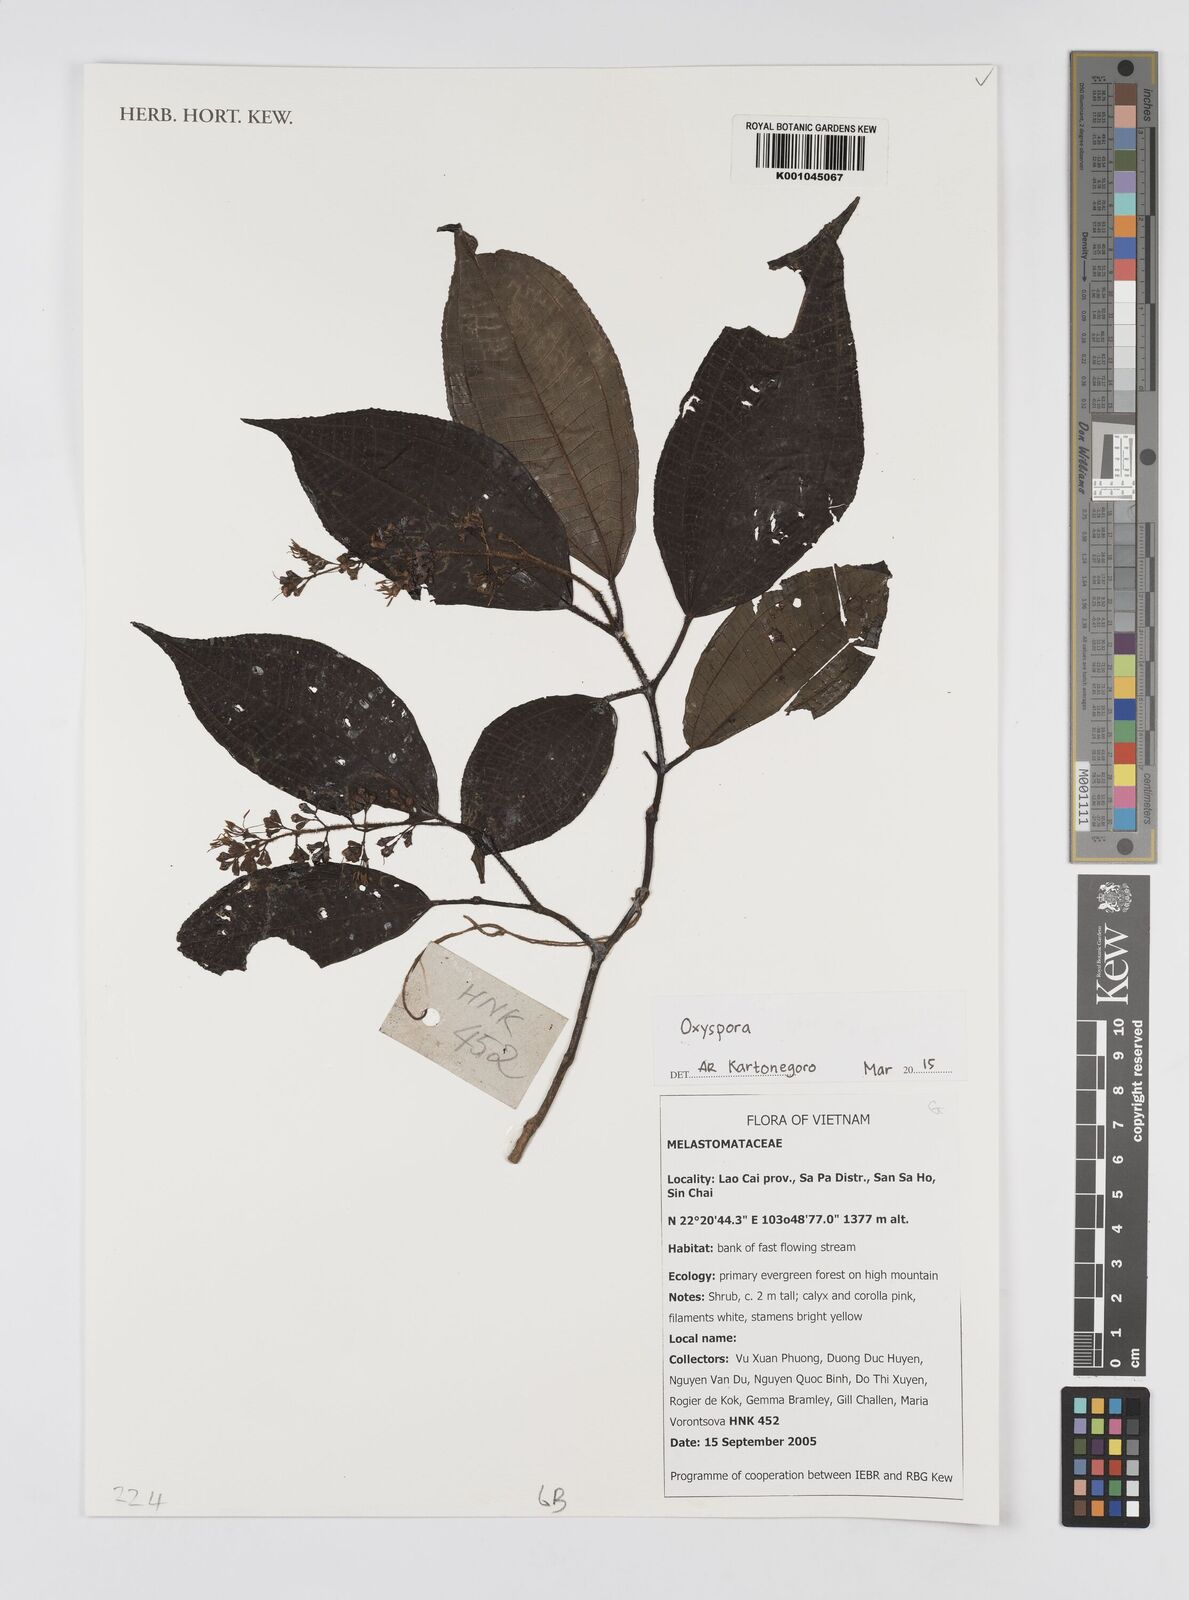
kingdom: Plantae
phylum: Tracheophyta
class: Magnoliopsida
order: Myrtales
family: Melastomataceae
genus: Oxyspora
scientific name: Oxyspora
